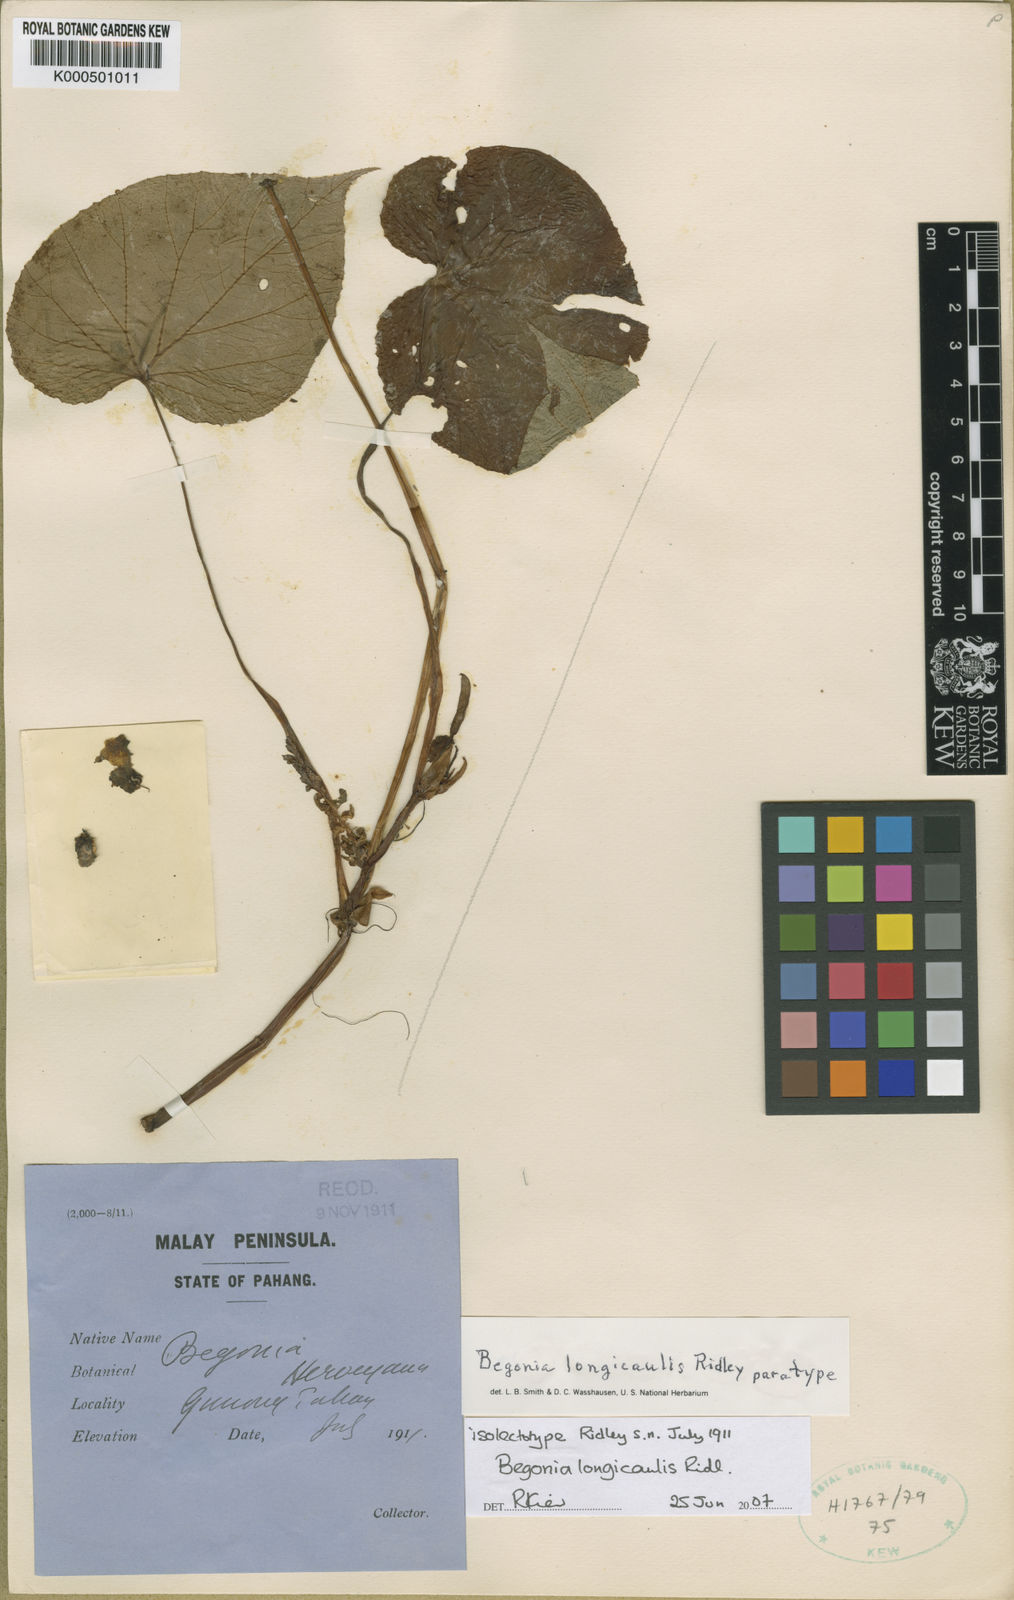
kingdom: Plantae
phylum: Tracheophyta
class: Magnoliopsida
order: Cucurbitales
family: Begoniaceae
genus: Begonia
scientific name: Begonia longicaulis
